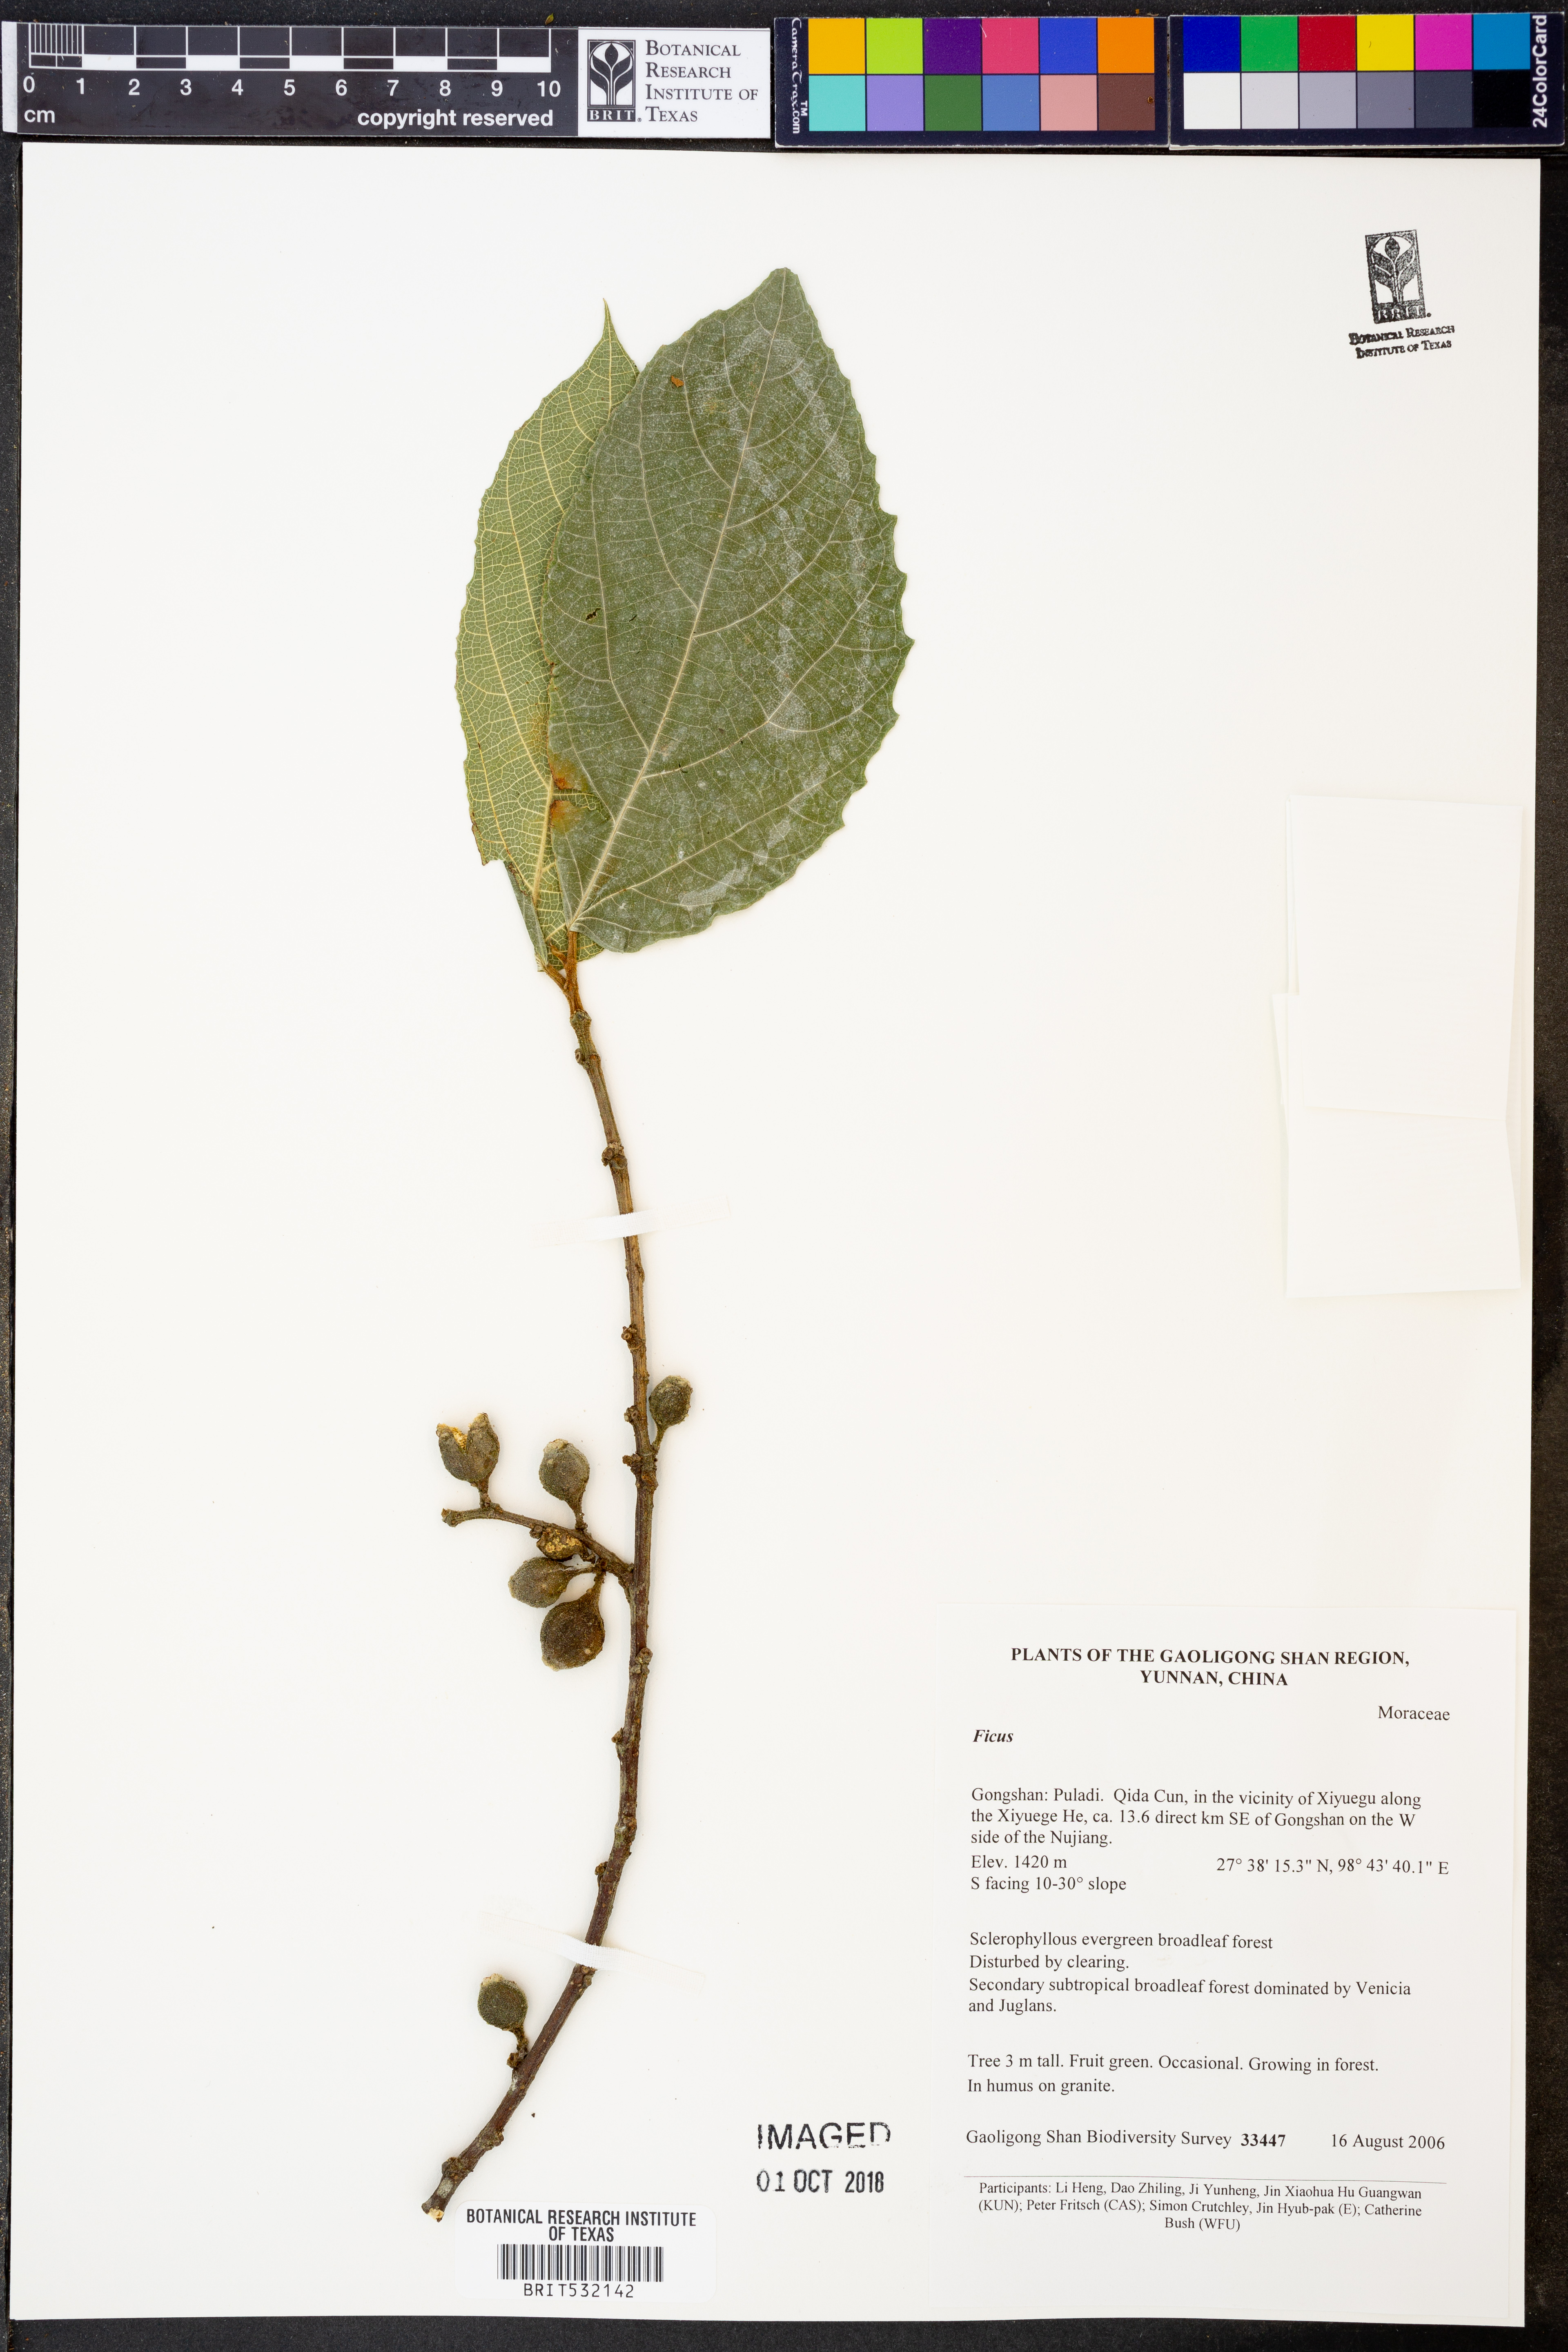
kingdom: Plantae
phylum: Tracheophyta
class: Magnoliopsida
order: Rosales
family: Moraceae
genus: Ficus
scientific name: Ficus
